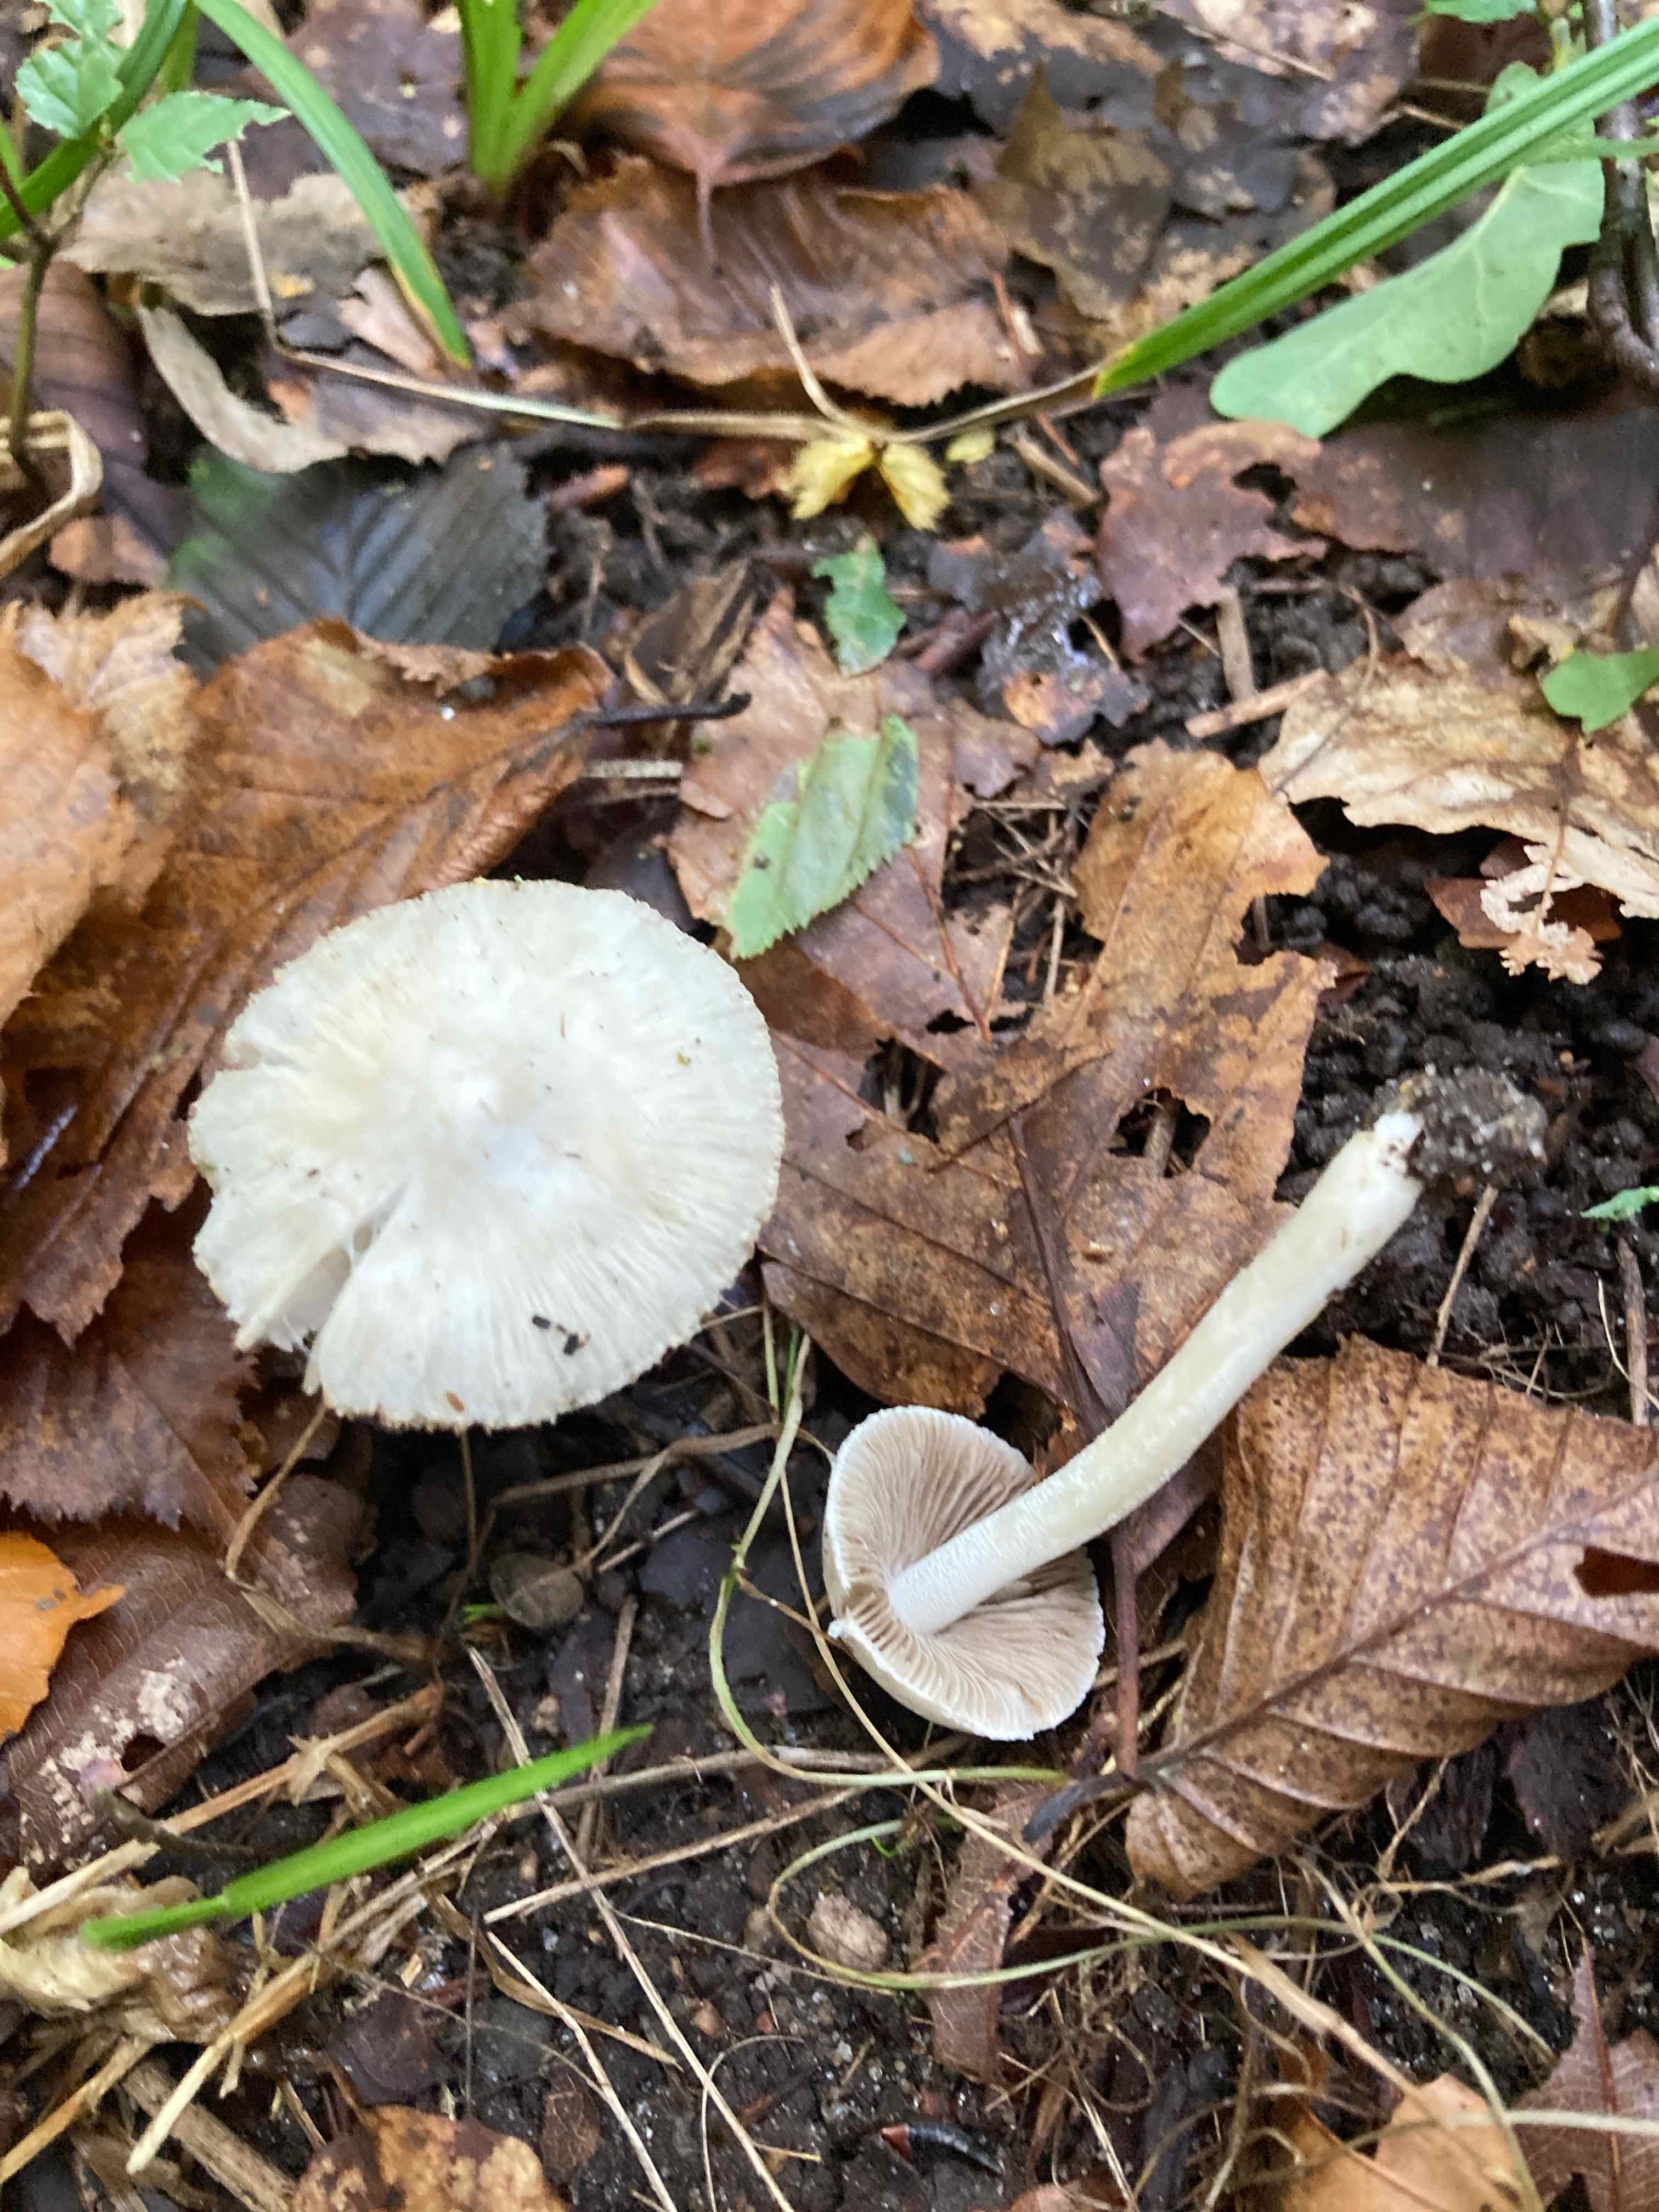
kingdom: Fungi
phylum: Basidiomycota
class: Agaricomycetes
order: Agaricales
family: Inocybaceae
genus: Inocybe
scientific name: Inocybe
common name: almindelig trævlhat
